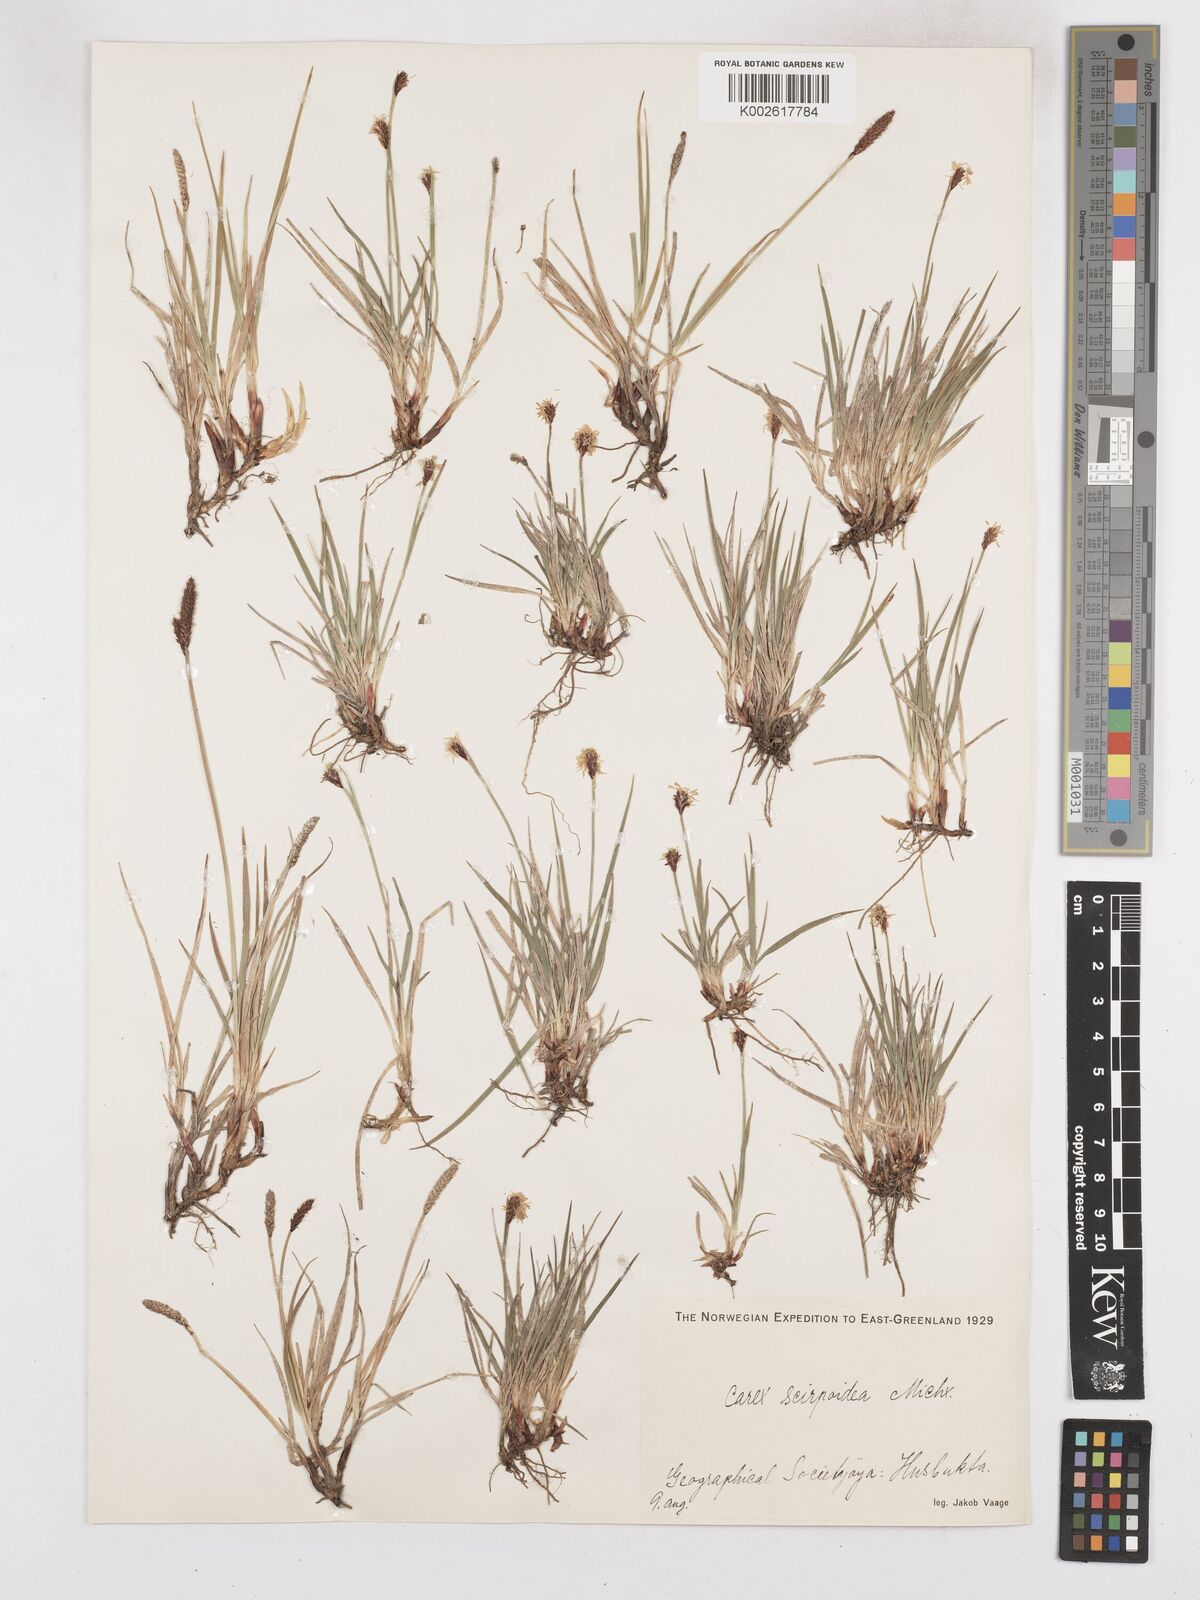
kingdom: Plantae
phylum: Tracheophyta
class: Liliopsida
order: Poales
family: Cyperaceae
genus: Carex
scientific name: Carex scirpoidea
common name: Canada single-spike sedge
